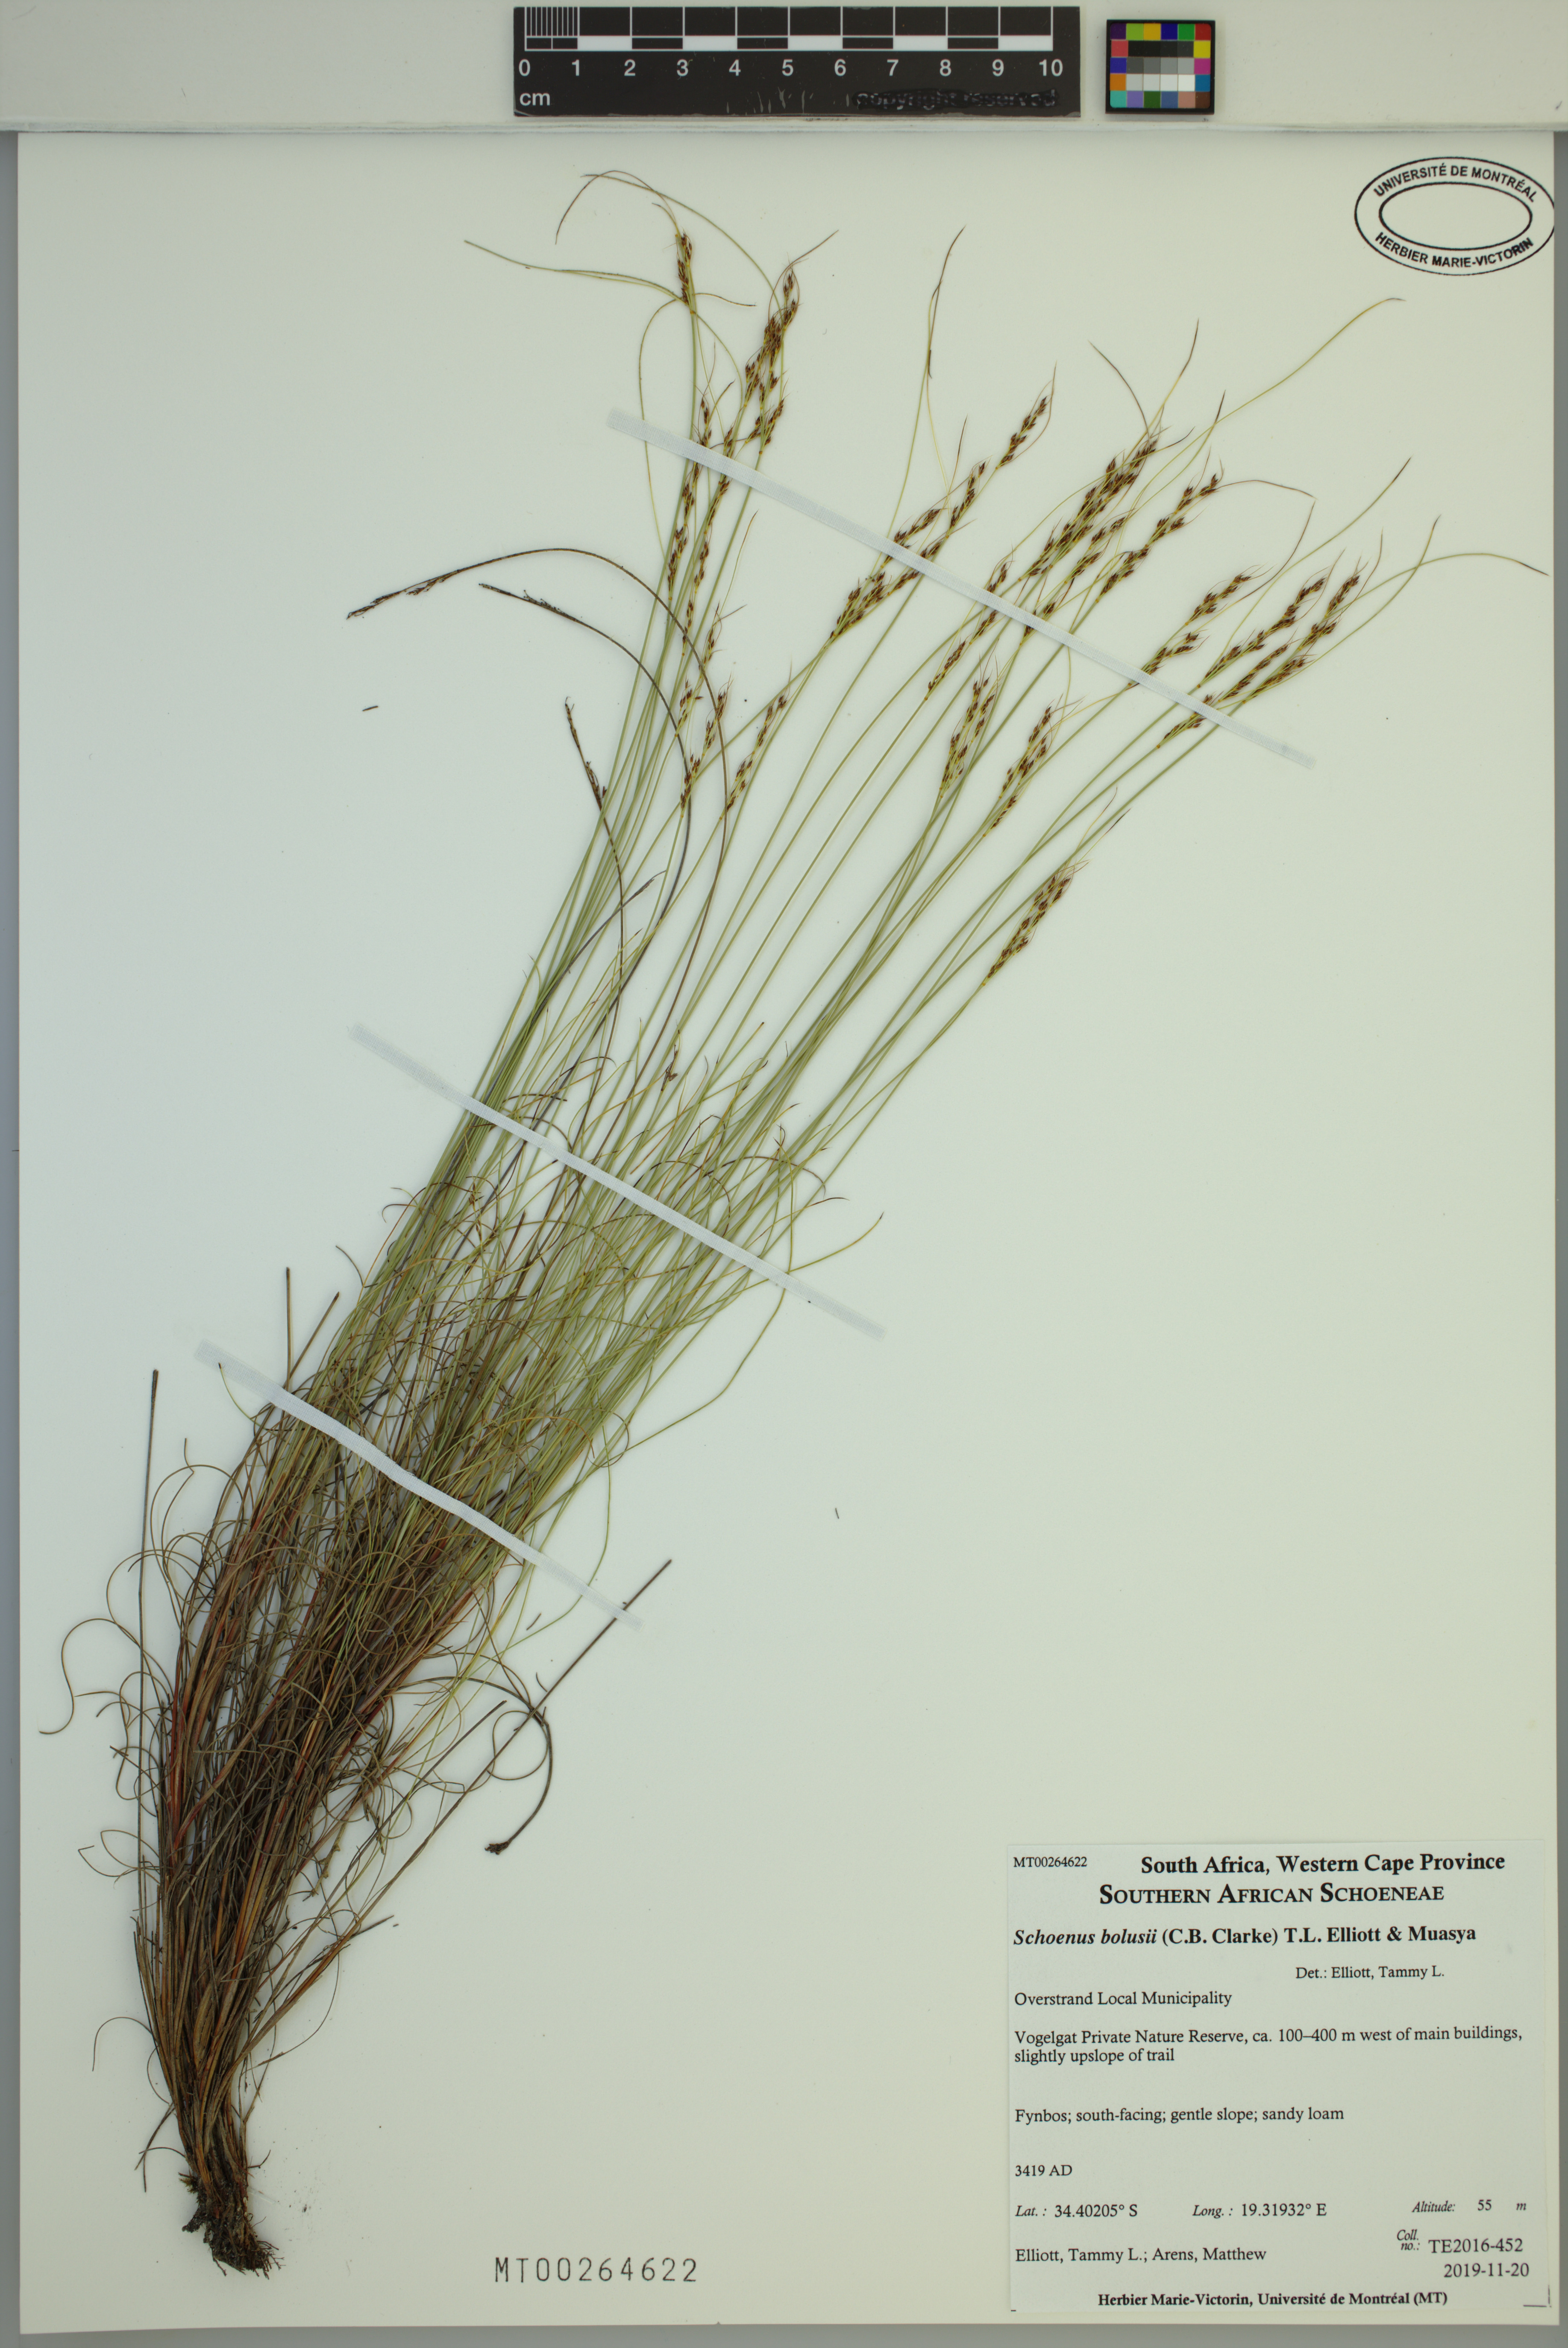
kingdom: Plantae
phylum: Tracheophyta
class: Liliopsida
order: Poales
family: Cyperaceae
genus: Schoenus
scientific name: Schoenus bolusii
